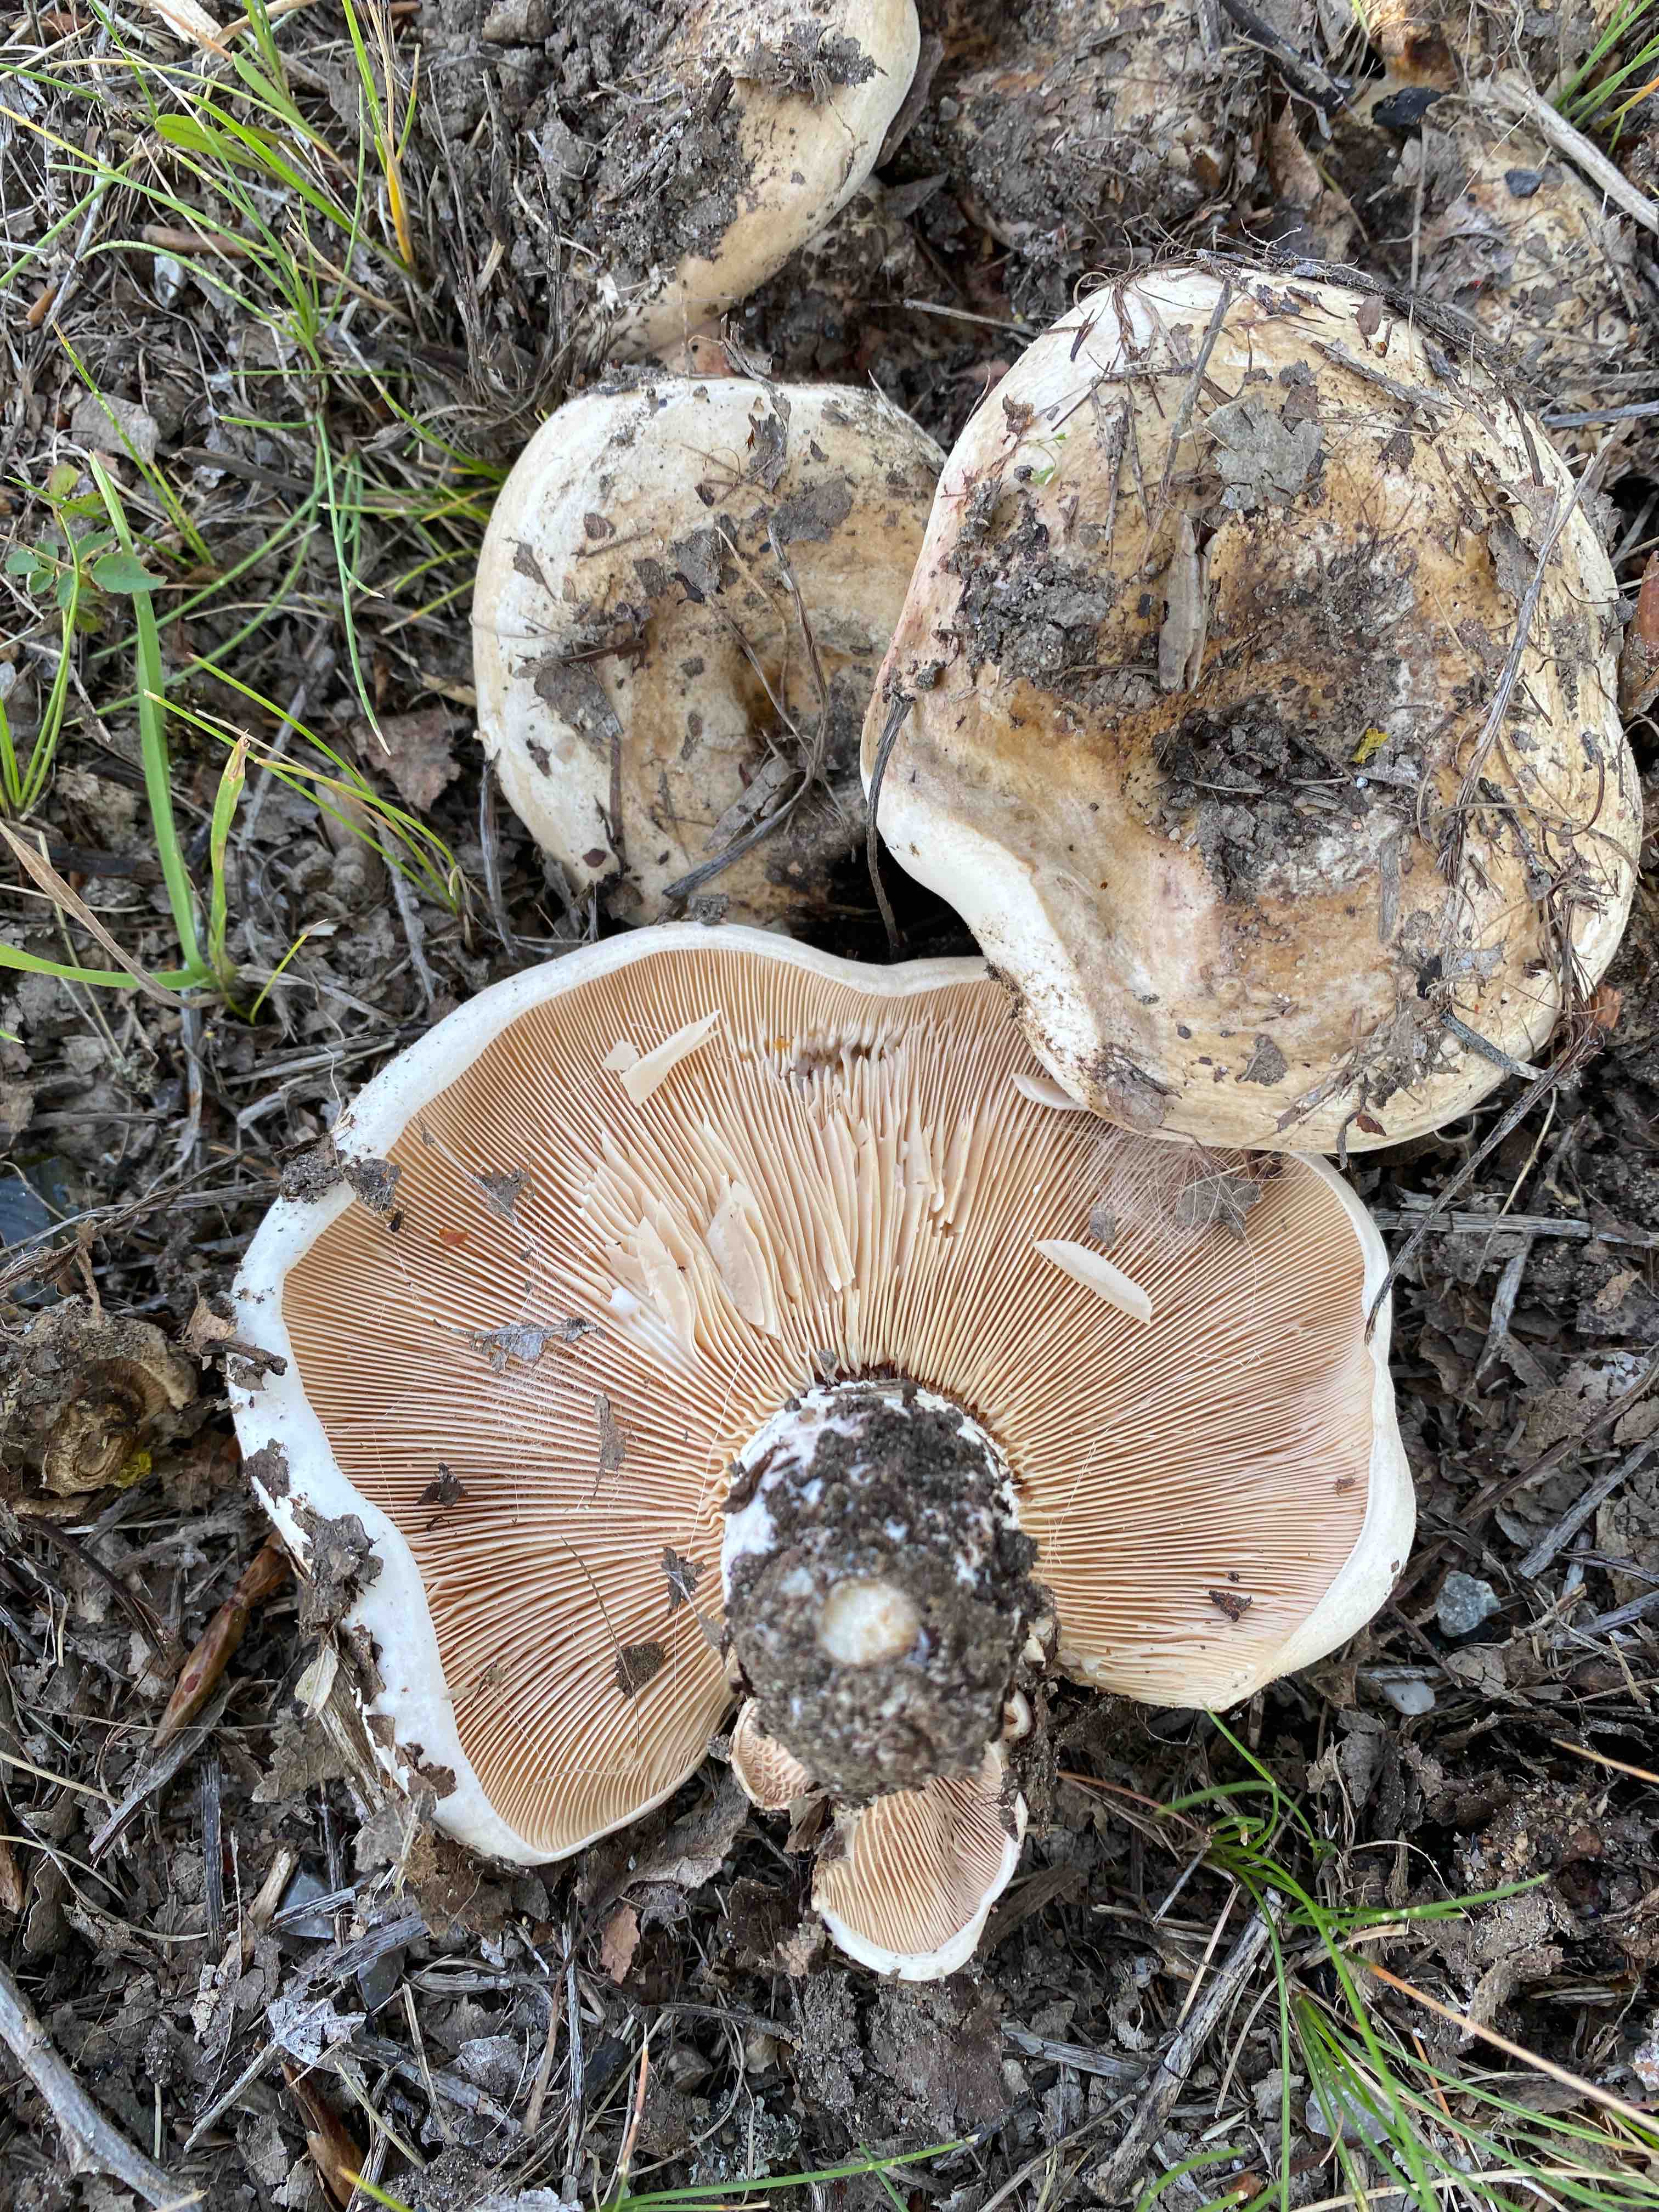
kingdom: Fungi
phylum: Basidiomycota
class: Agaricomycetes
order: Russulales
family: Russulaceae
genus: Lactarius
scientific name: Lactarius controversus
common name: rosabladet mælkehat
